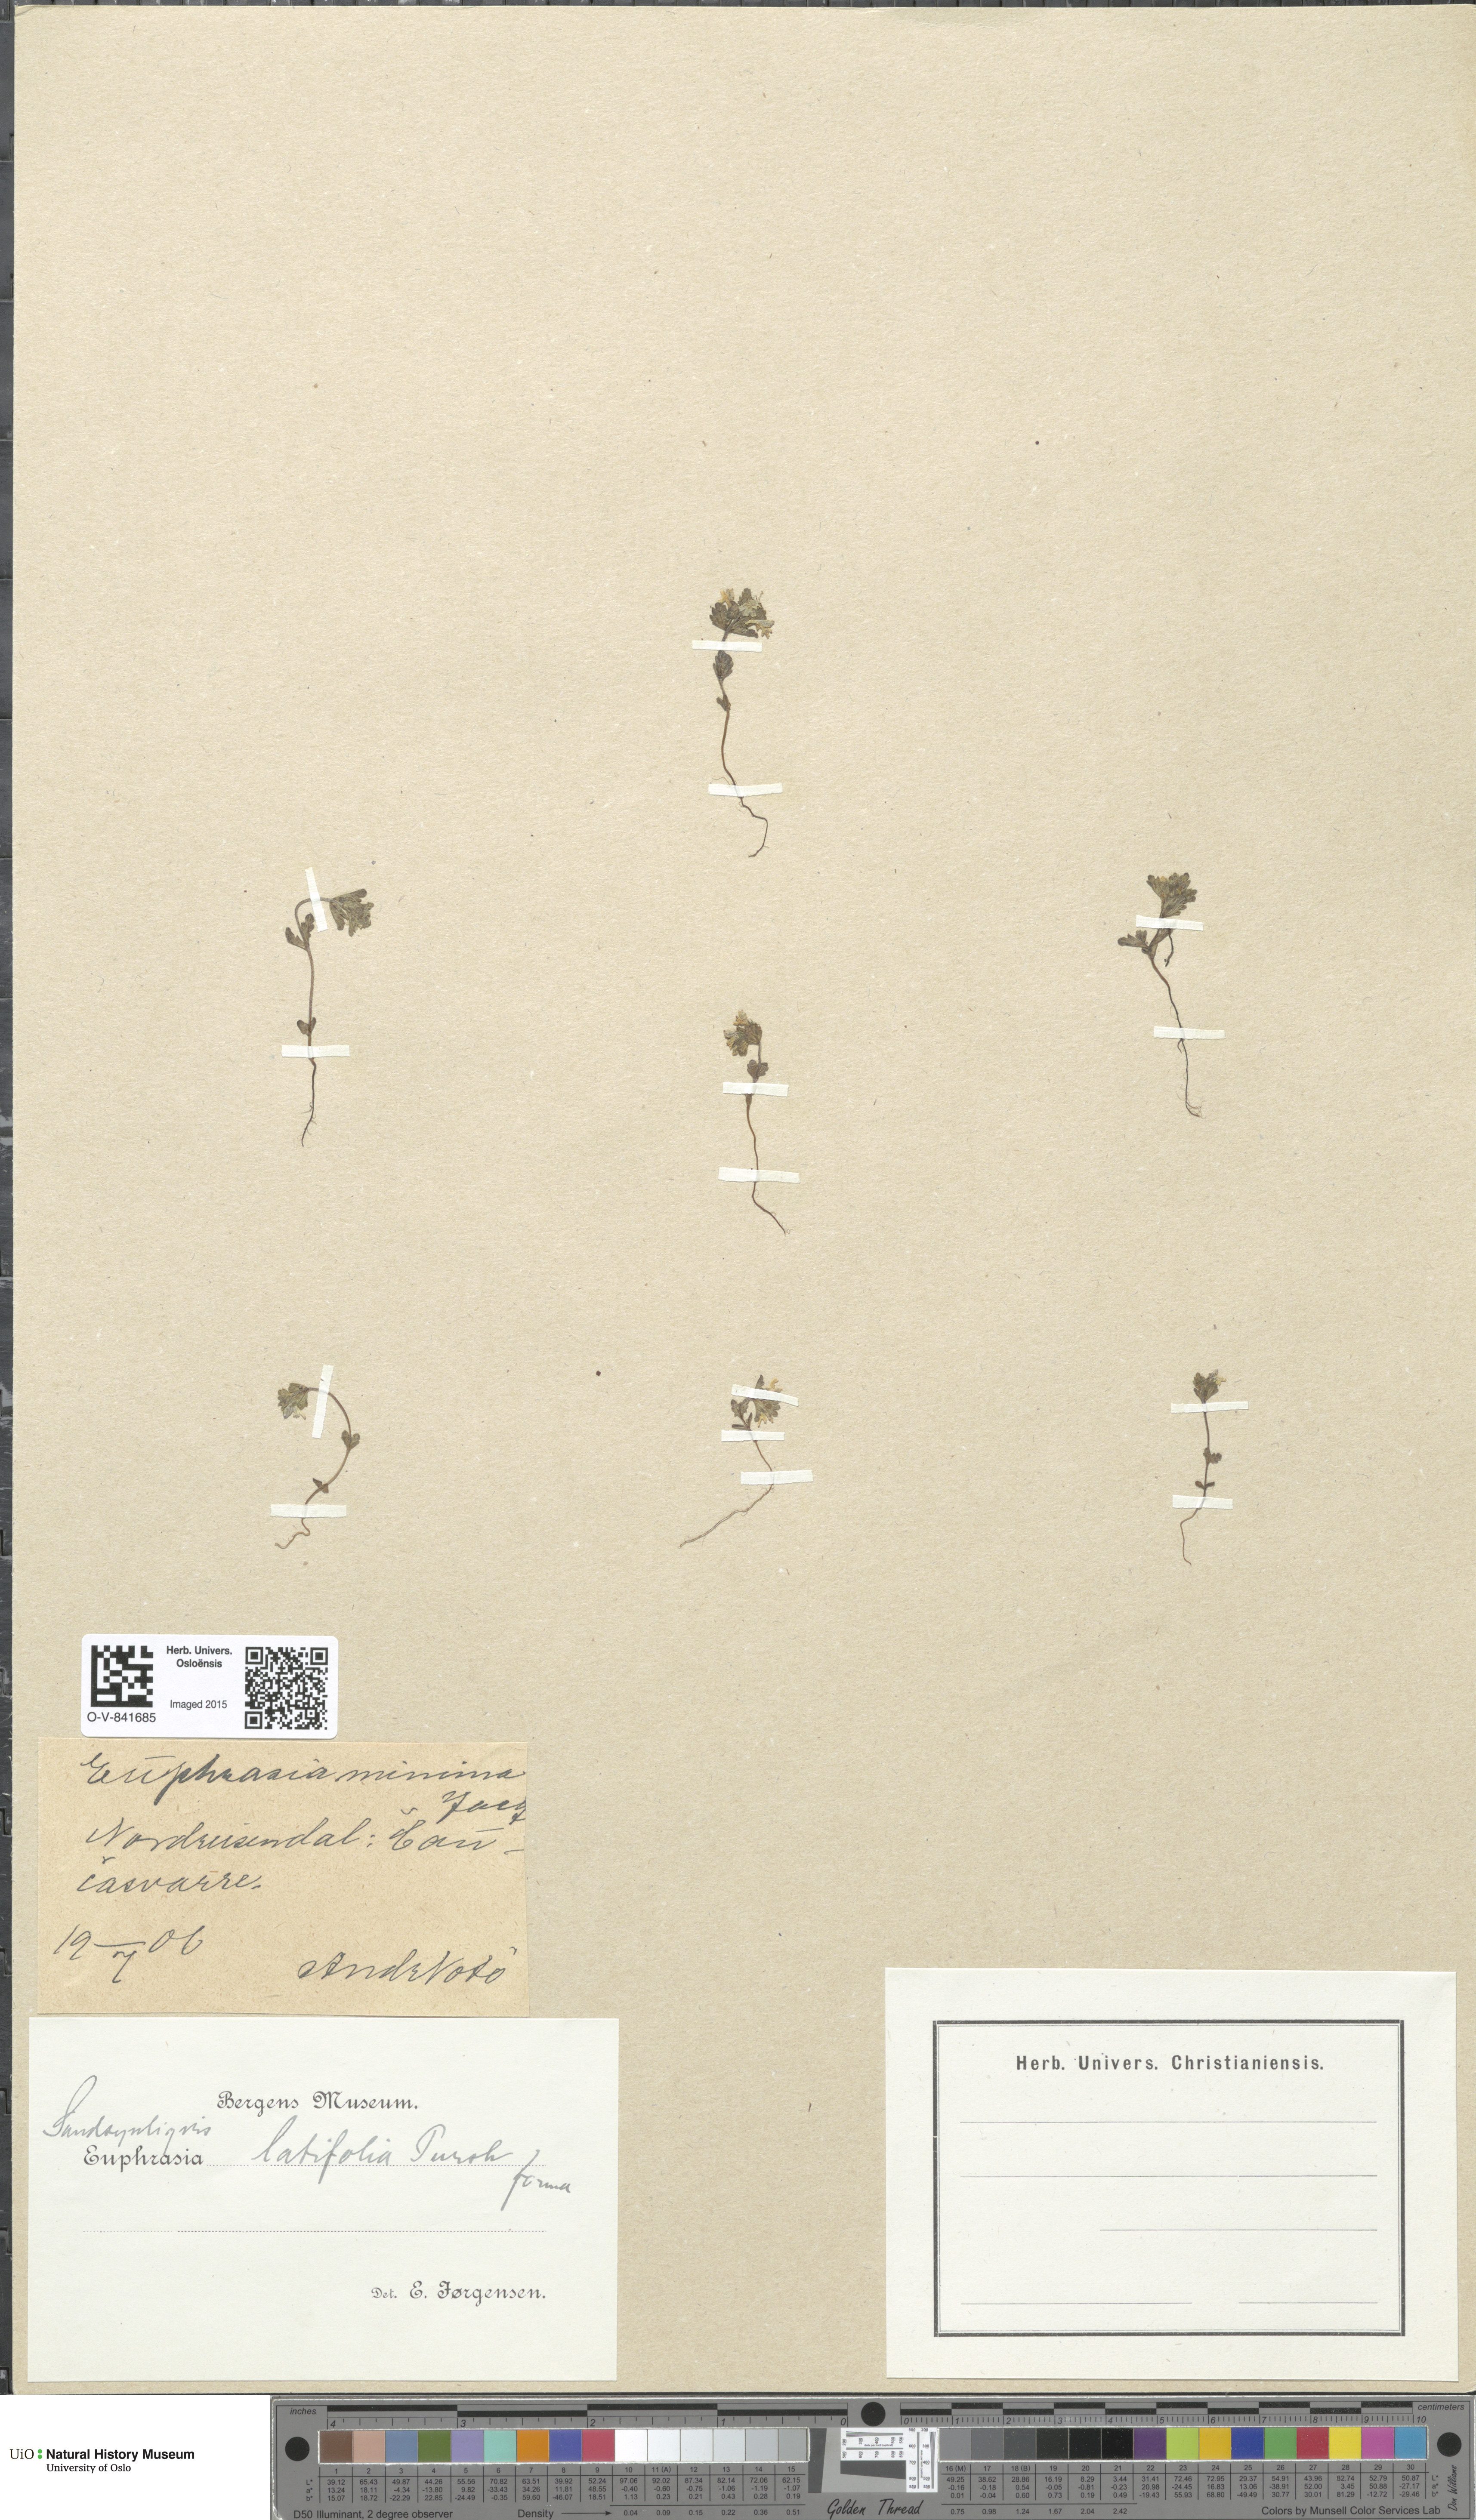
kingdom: Plantae
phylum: Tracheophyta
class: Magnoliopsida
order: Lamiales
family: Orobanchaceae
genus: Euphrasia
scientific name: Euphrasia wettsteinii
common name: Wettstein's eyebright
